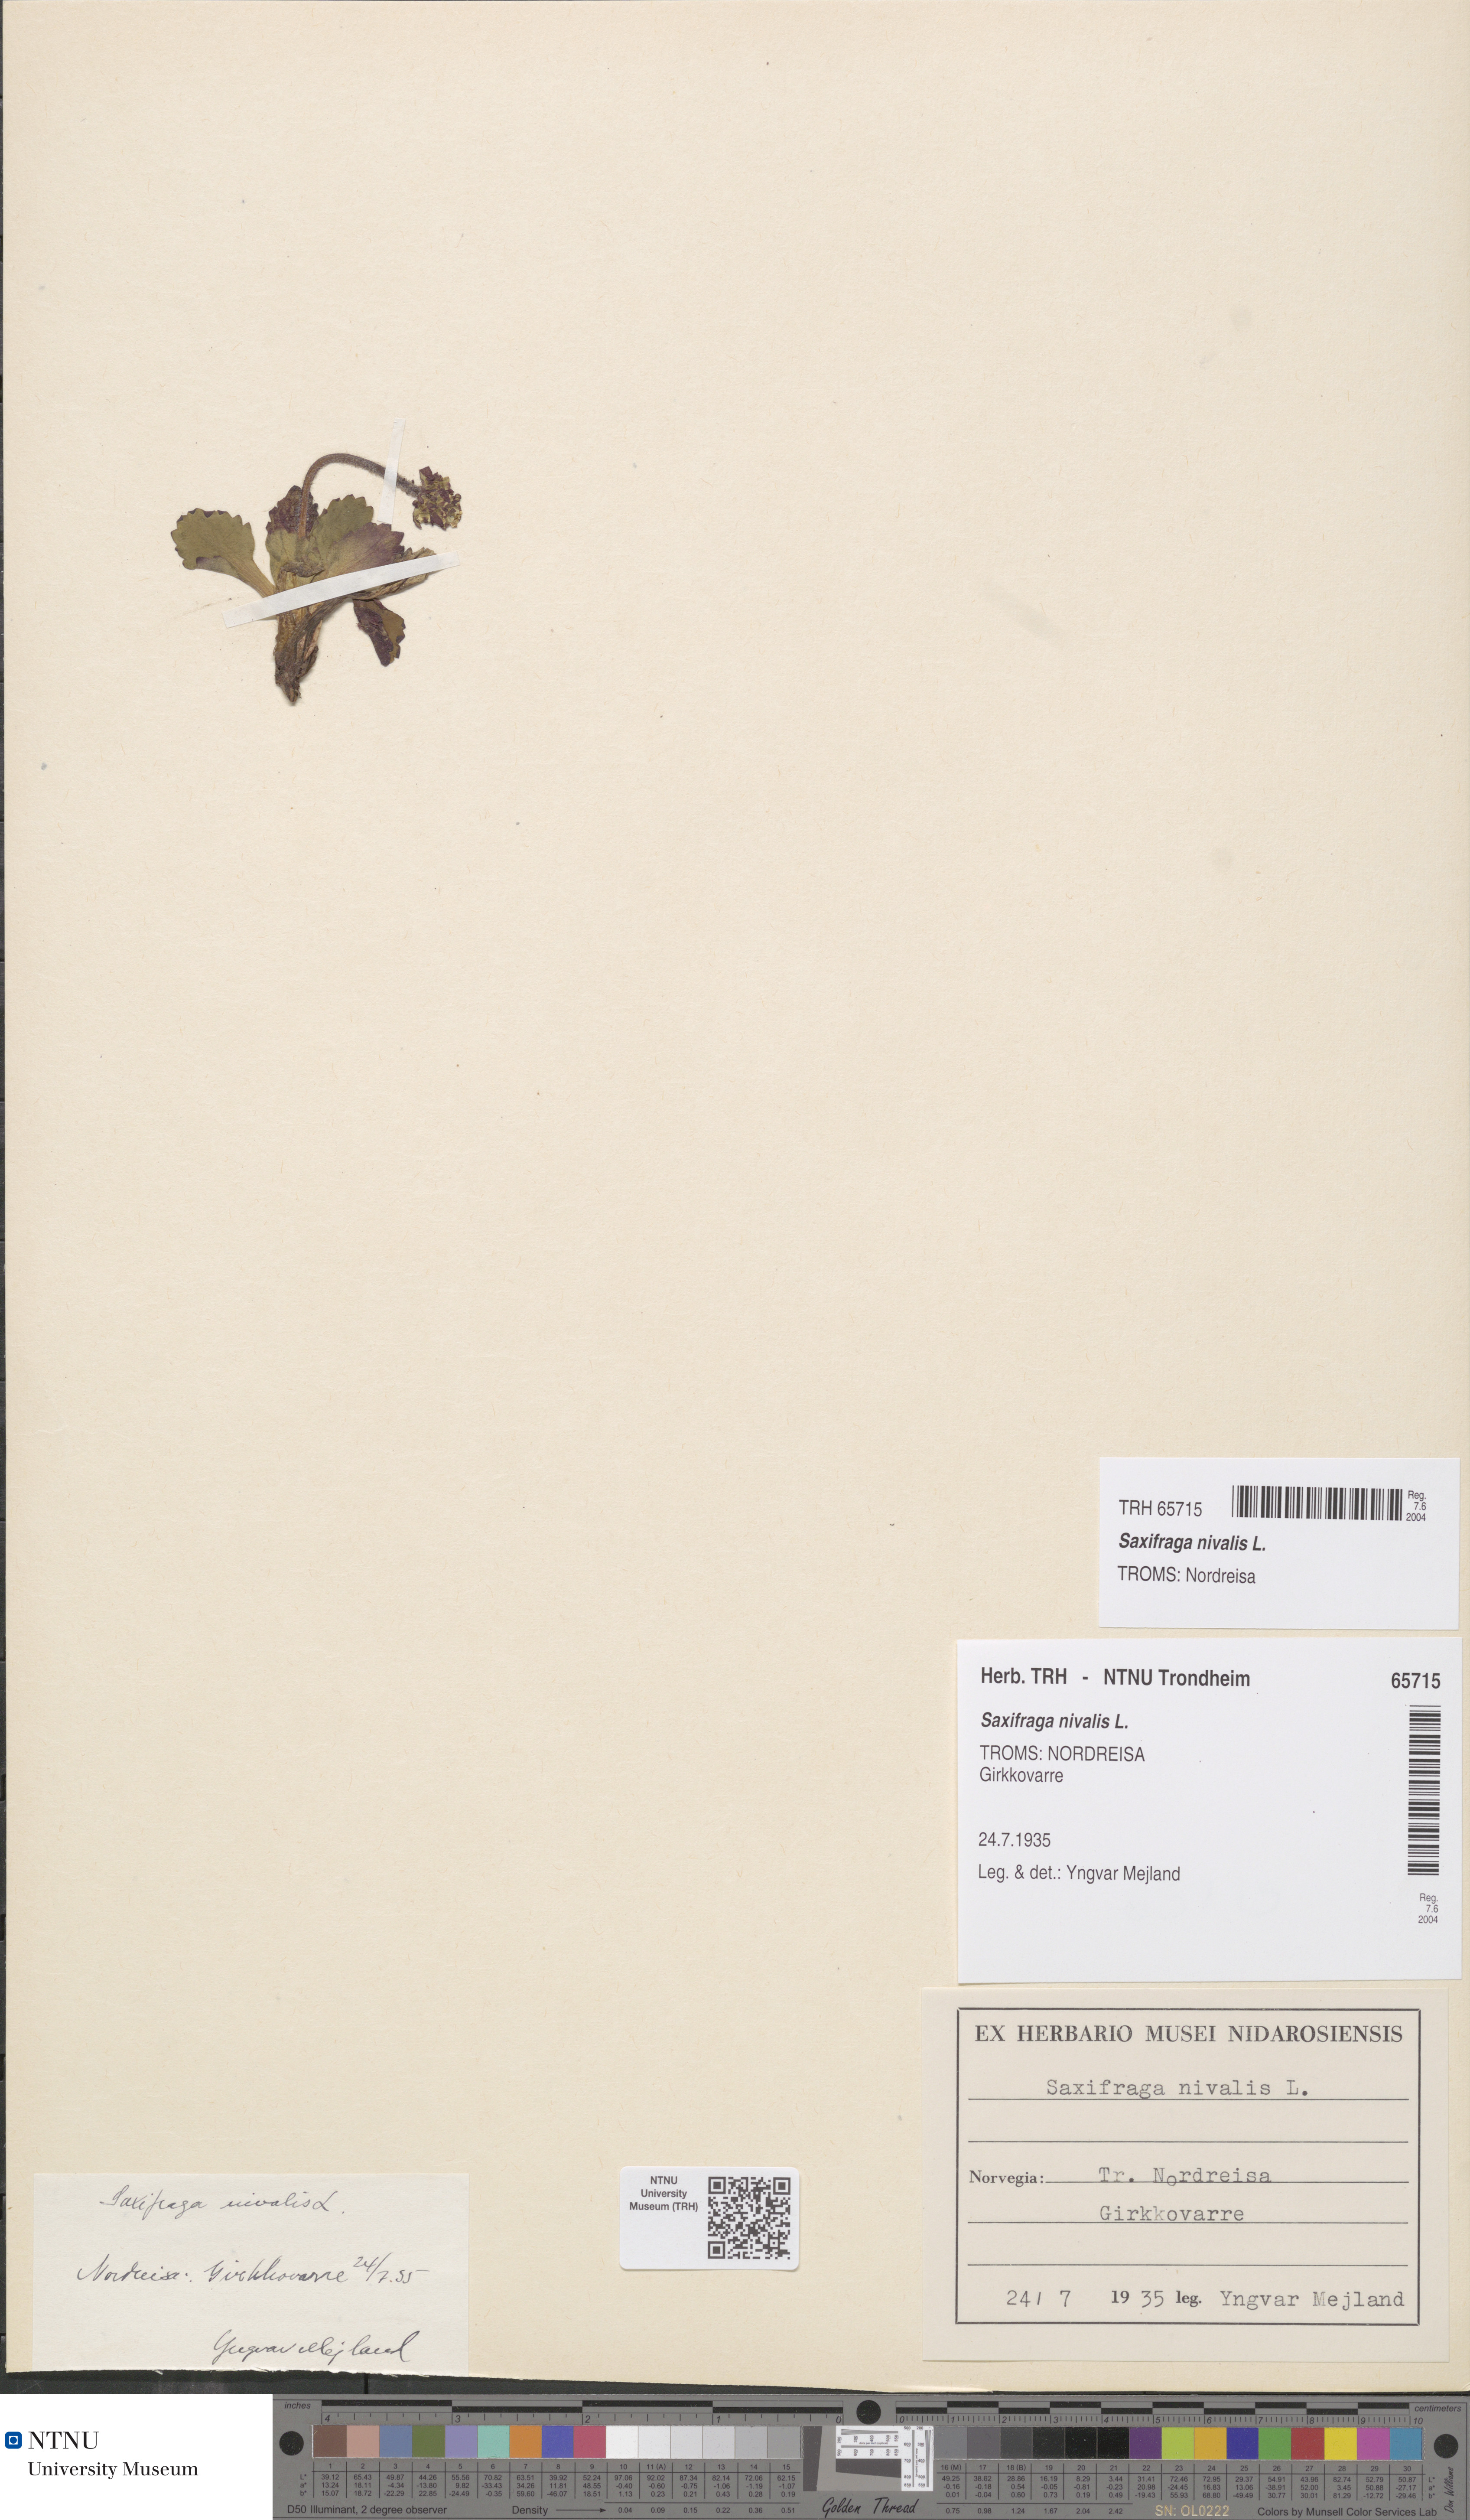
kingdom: Plantae
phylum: Tracheophyta
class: Magnoliopsida
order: Saxifragales
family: Saxifragaceae
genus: Micranthes
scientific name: Micranthes nivalis
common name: Alpine saxifrage
